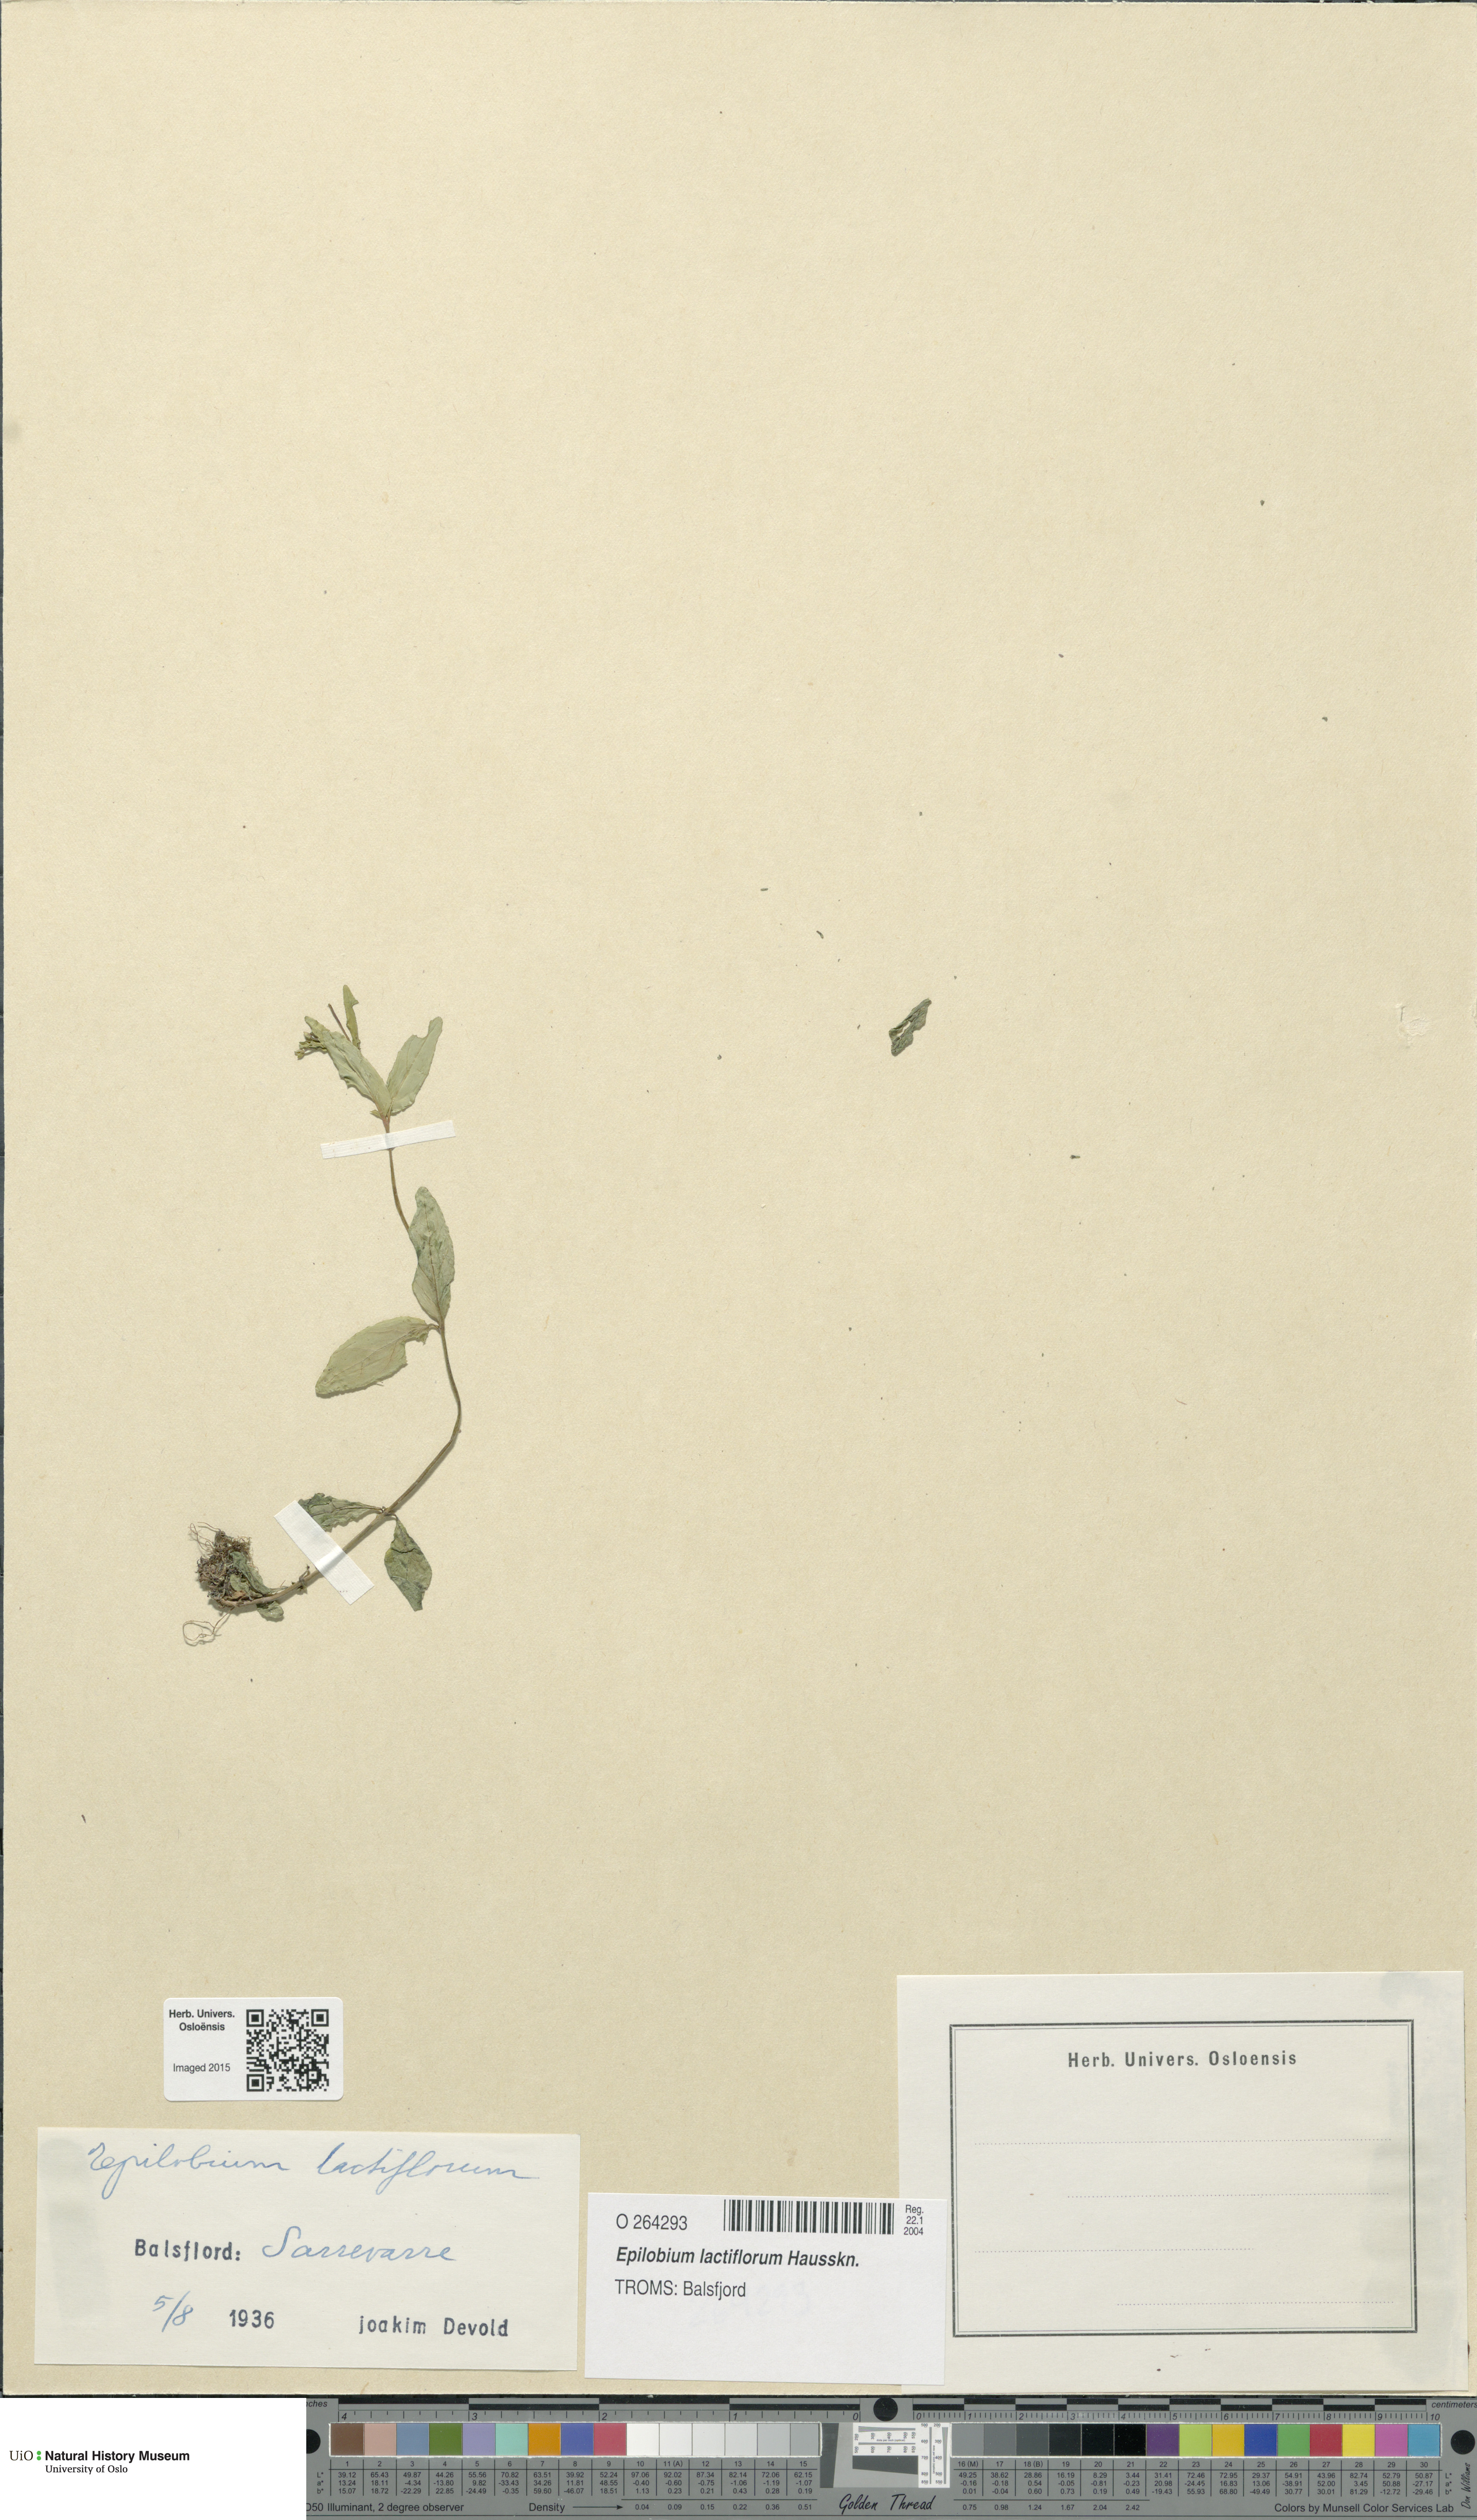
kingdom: Plantae
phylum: Tracheophyta
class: Magnoliopsida
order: Myrtales
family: Onagraceae
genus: Epilobium
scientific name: Epilobium lactiflorum
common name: Milkflower willowherb
